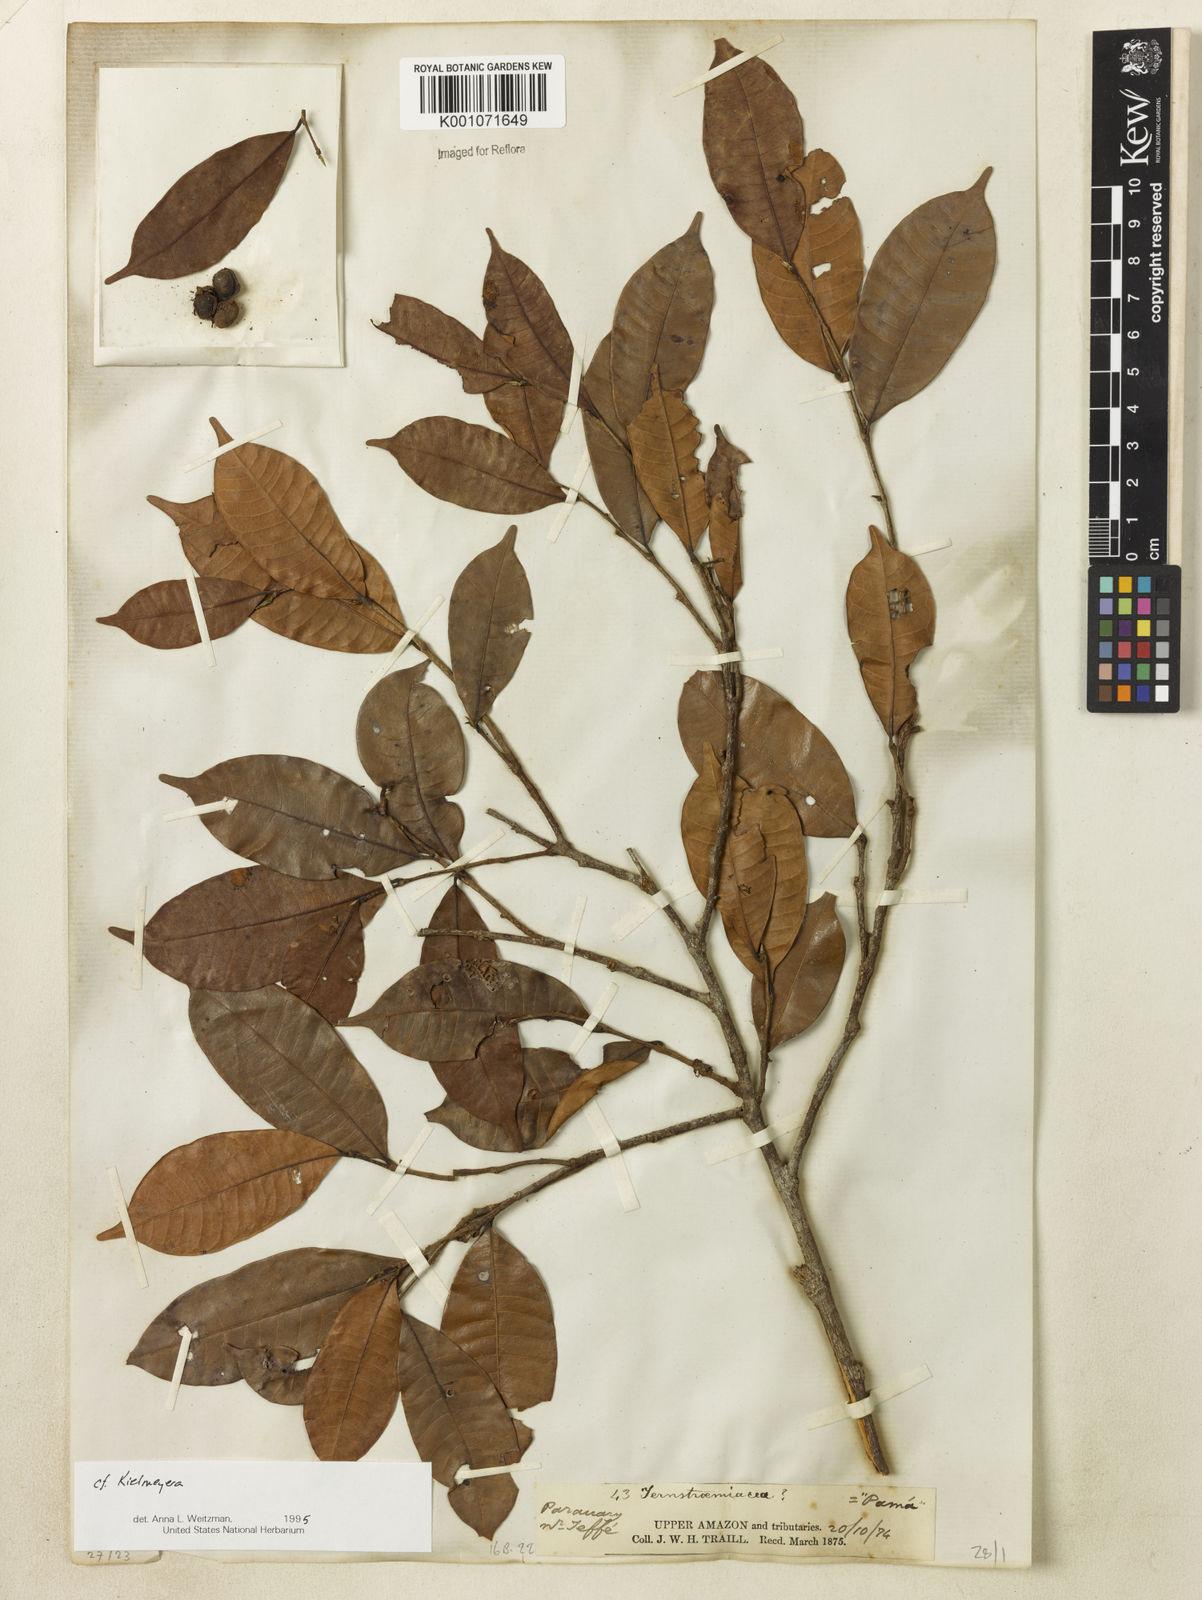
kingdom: Plantae
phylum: Tracheophyta
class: Magnoliopsida
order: Malpighiales
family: Calophyllaceae
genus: Caraipa
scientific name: Caraipa
